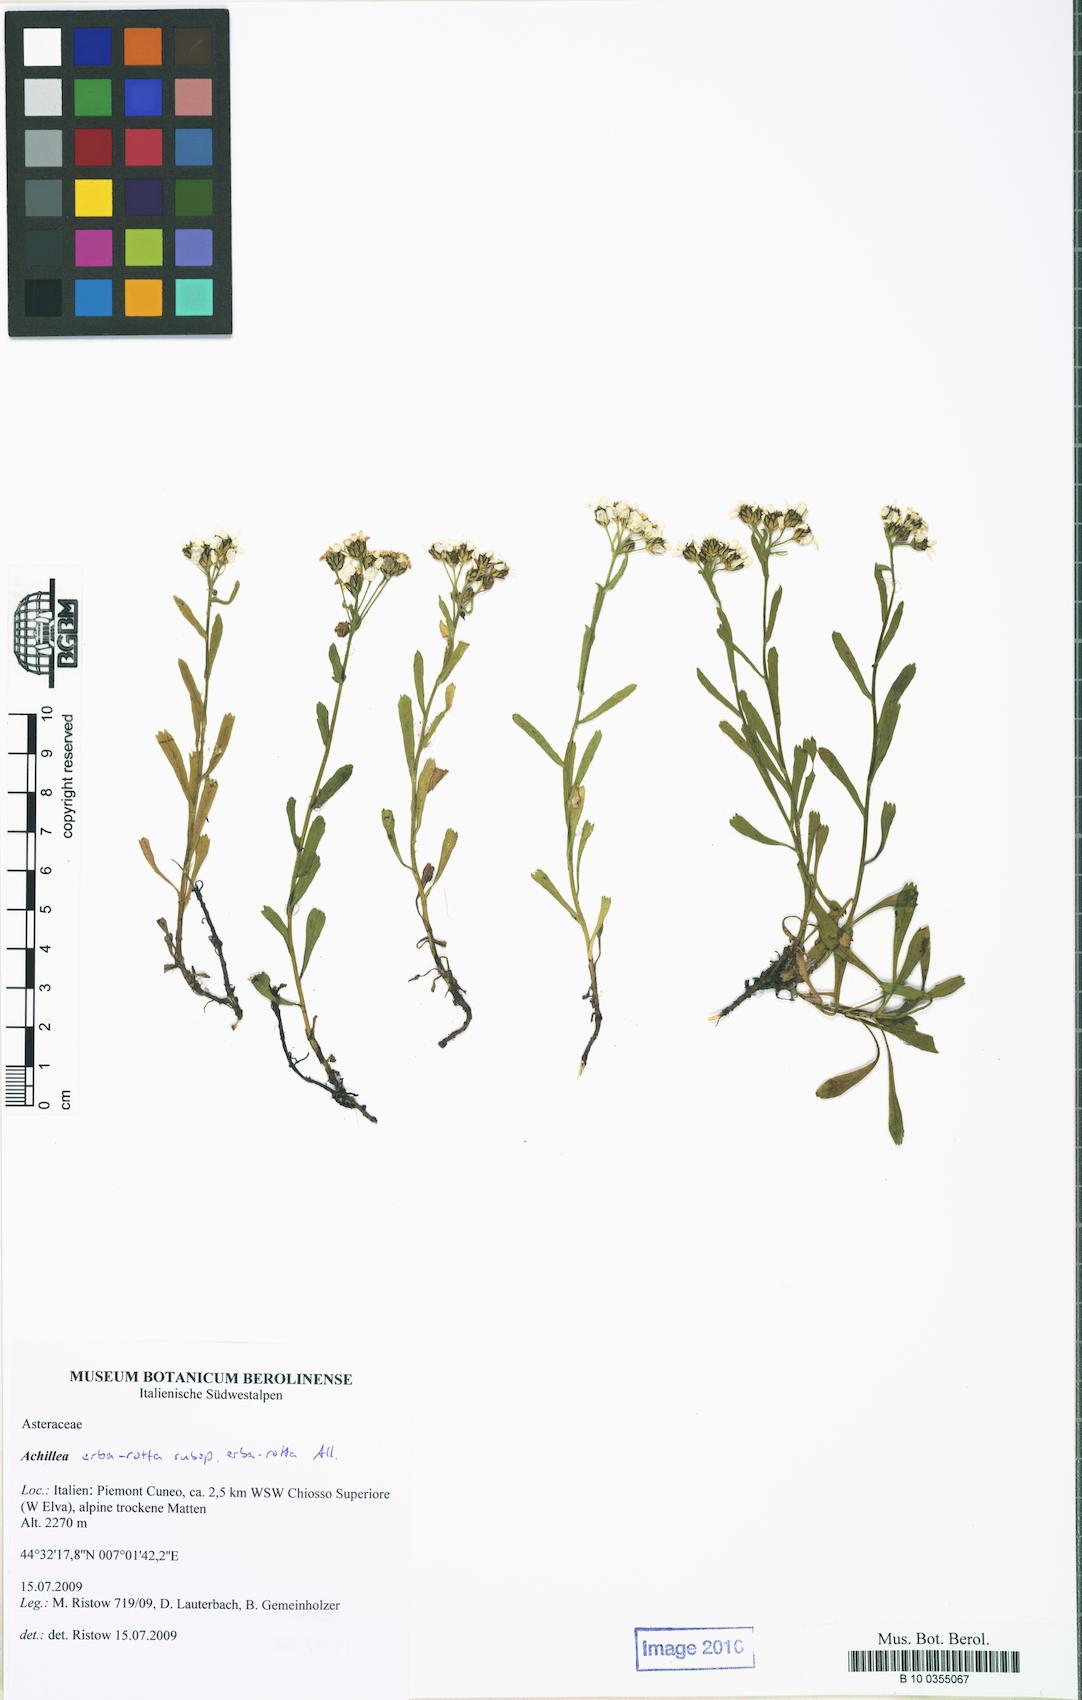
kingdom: Plantae
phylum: Tracheophyta
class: Magnoliopsida
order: Asterales
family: Asteraceae
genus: Achillea
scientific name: Achillea erba-rotta
